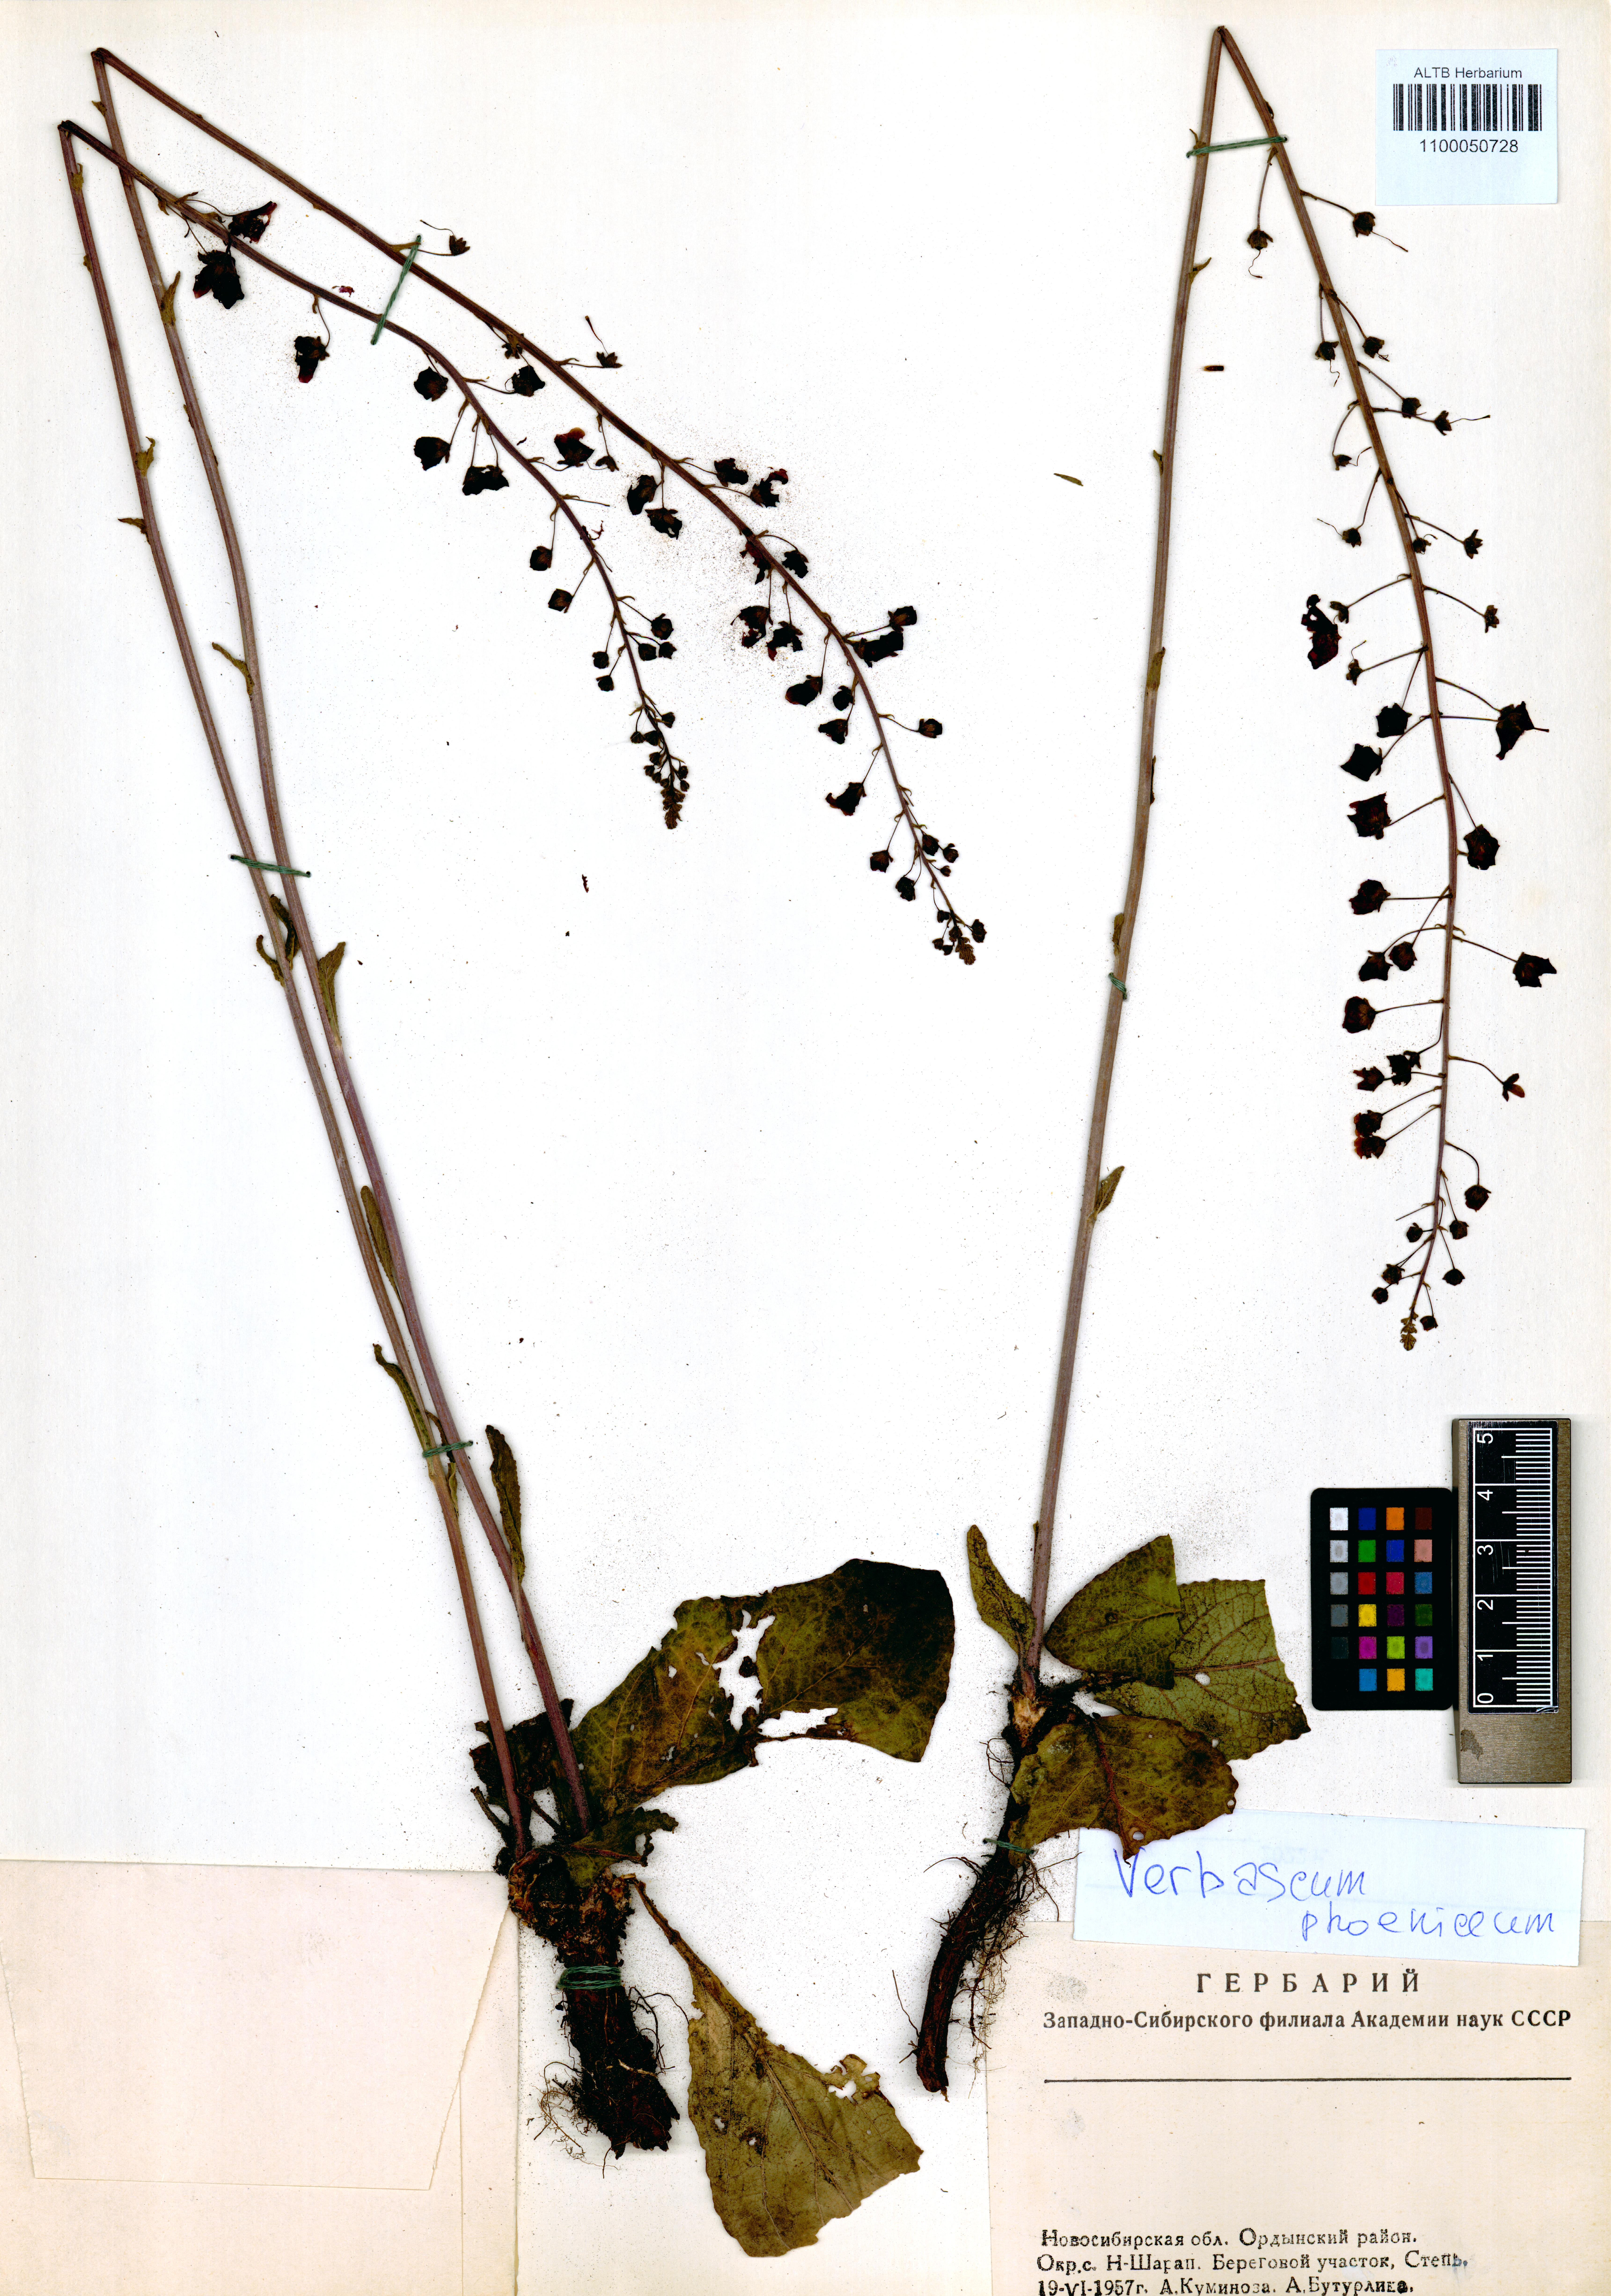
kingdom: Plantae
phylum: Tracheophyta
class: Magnoliopsida
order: Lamiales
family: Scrophulariaceae
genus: Verbascum
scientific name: Verbascum phoeniceum
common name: Purple mullein
